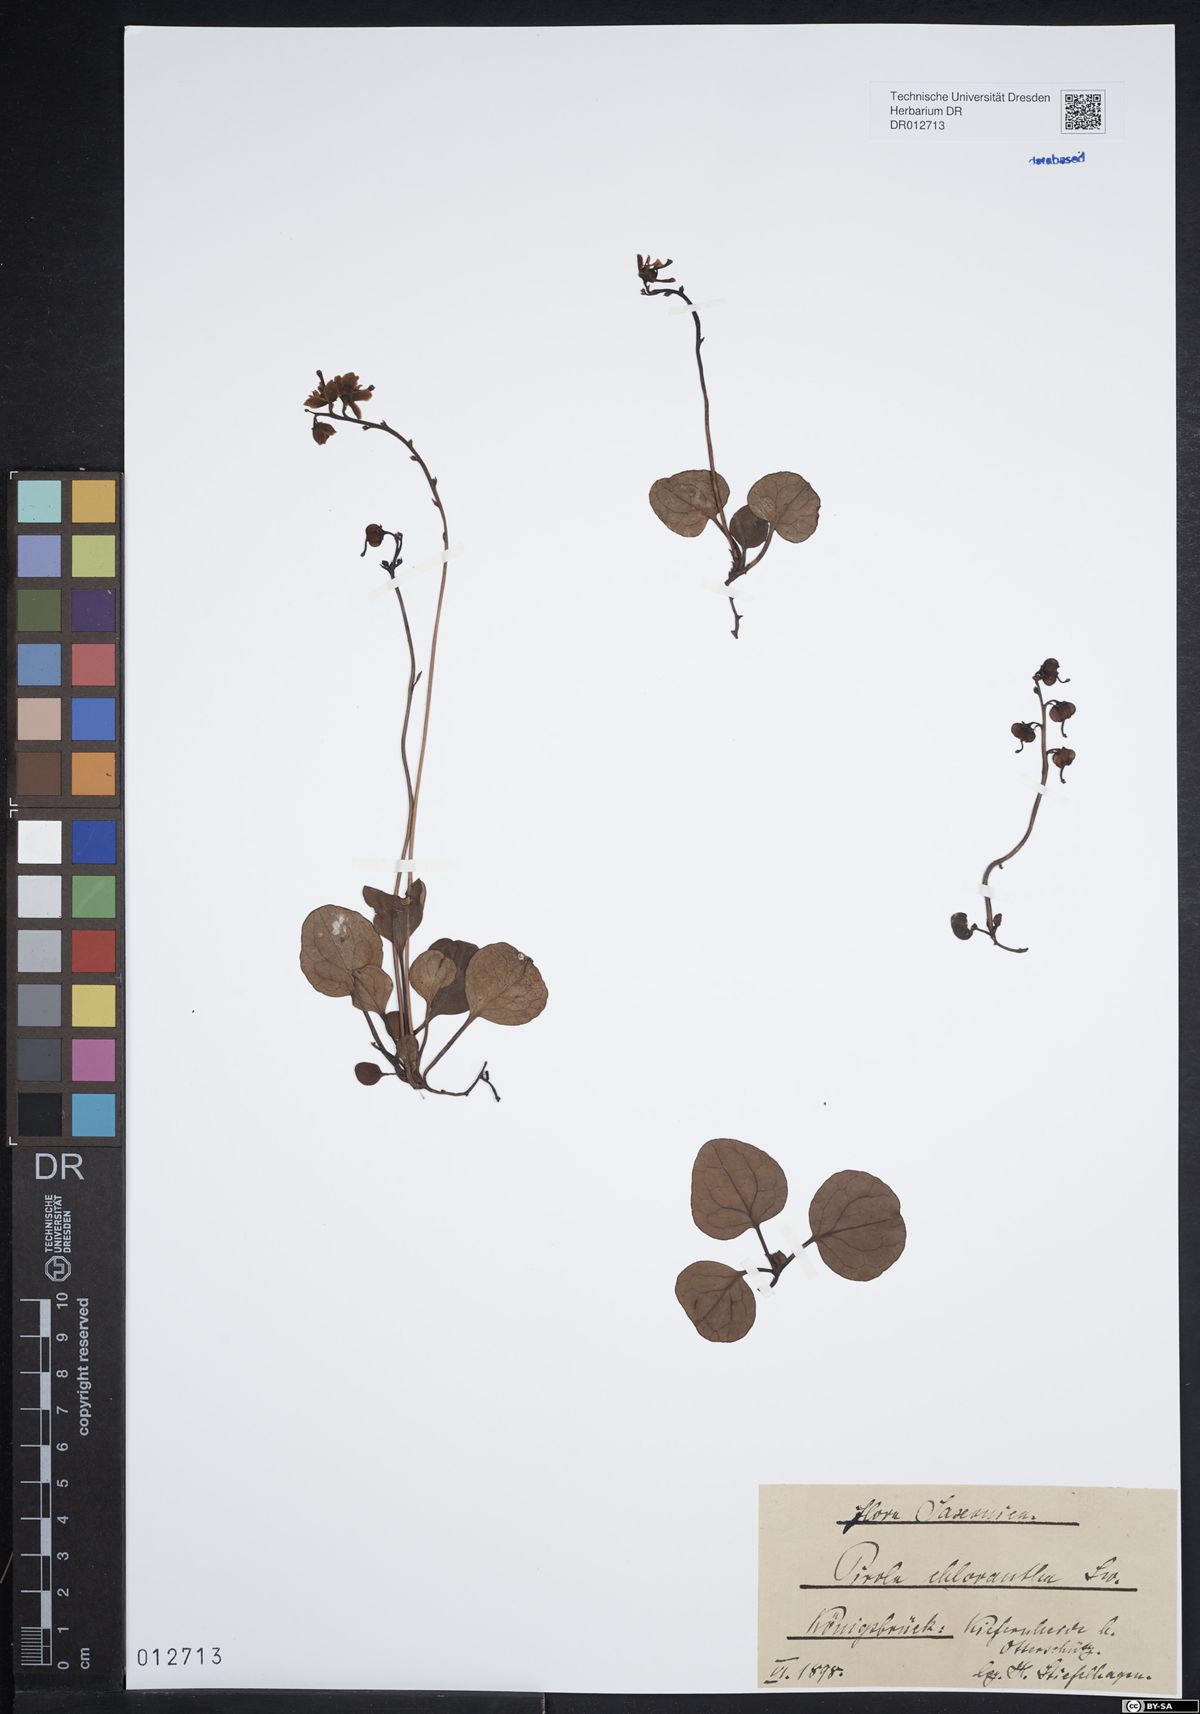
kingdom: Plantae
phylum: Tracheophyta
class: Magnoliopsida
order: Ericales
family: Ericaceae
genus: Pyrola
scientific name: Pyrola chlorantha
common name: Green wintergreen
